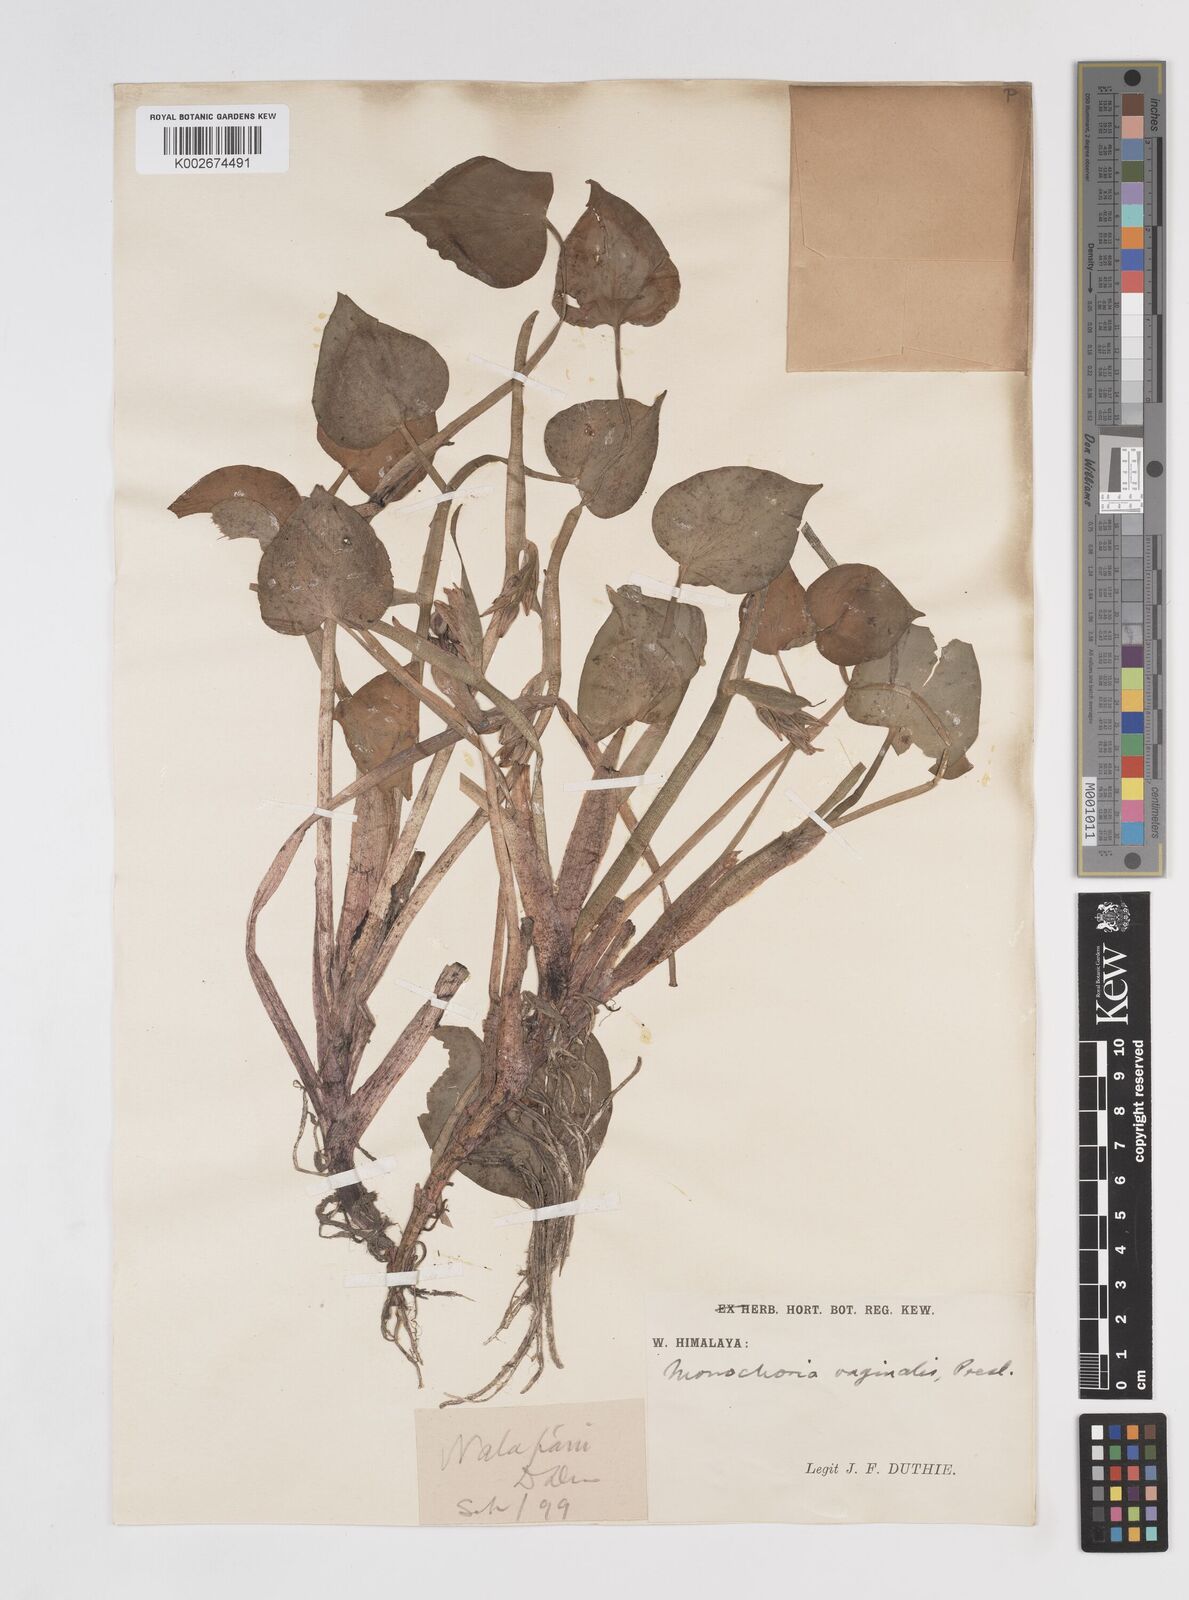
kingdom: Plantae
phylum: Tracheophyta
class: Liliopsida
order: Commelinales
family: Pontederiaceae
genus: Pontederia
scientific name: Pontederia vaginalis
